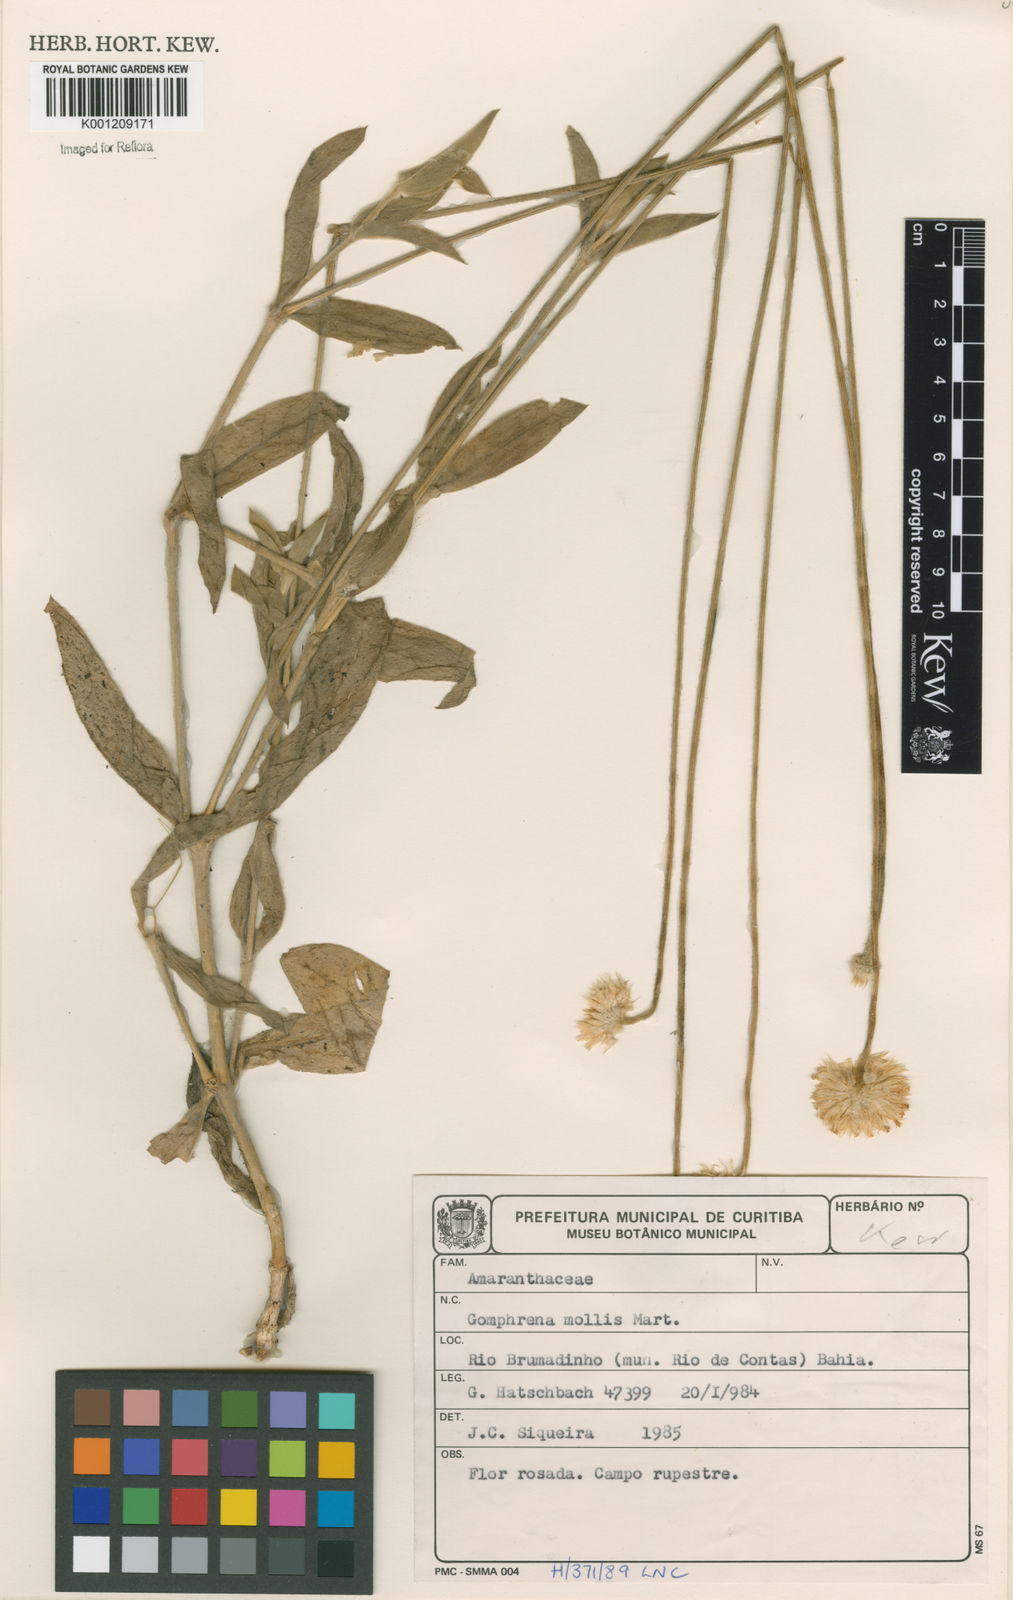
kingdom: Plantae
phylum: Tracheophyta
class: Magnoliopsida
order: Caryophyllales
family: Amaranthaceae
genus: Gomphrena
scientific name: Gomphrena mollis
